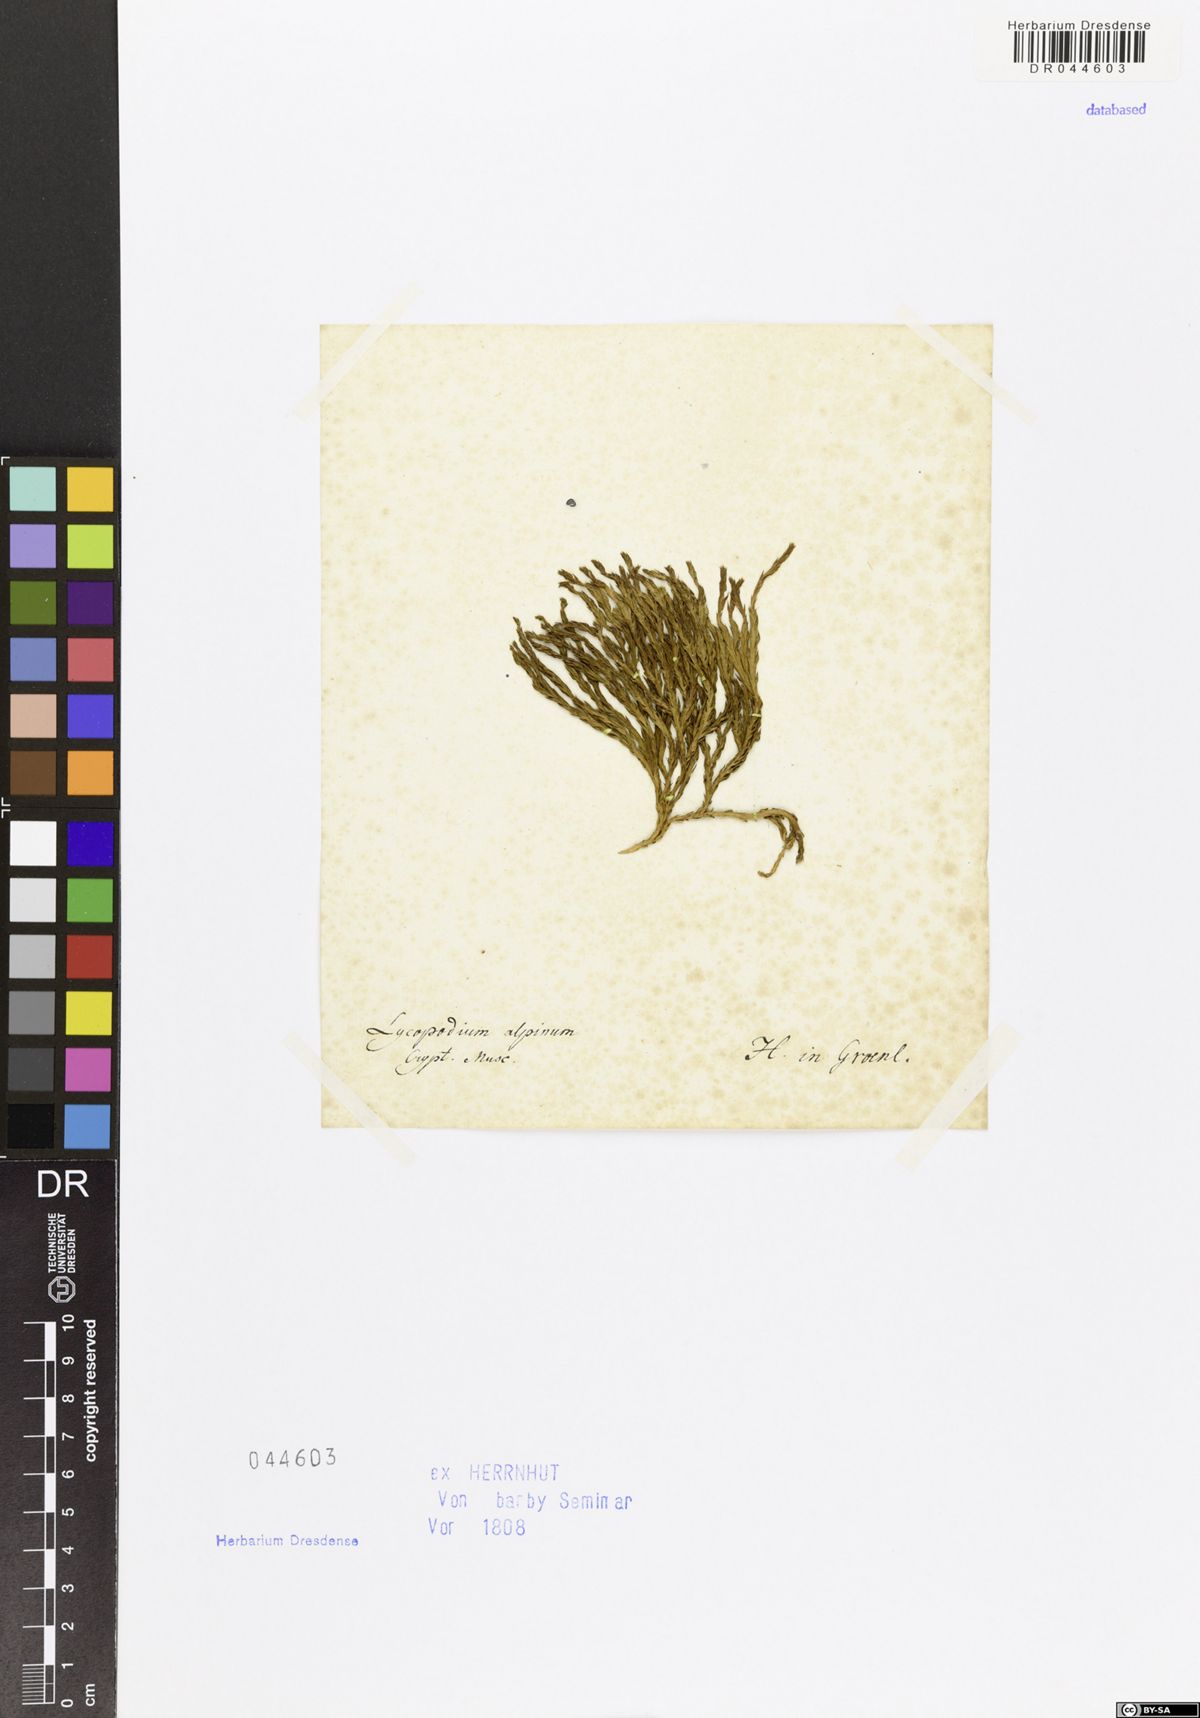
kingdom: Plantae
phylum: Tracheophyta
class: Lycopodiopsida
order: Lycopodiales
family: Lycopodiaceae
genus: Diphasiastrum
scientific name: Diphasiastrum alpinum
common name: Alpine clubmoss
